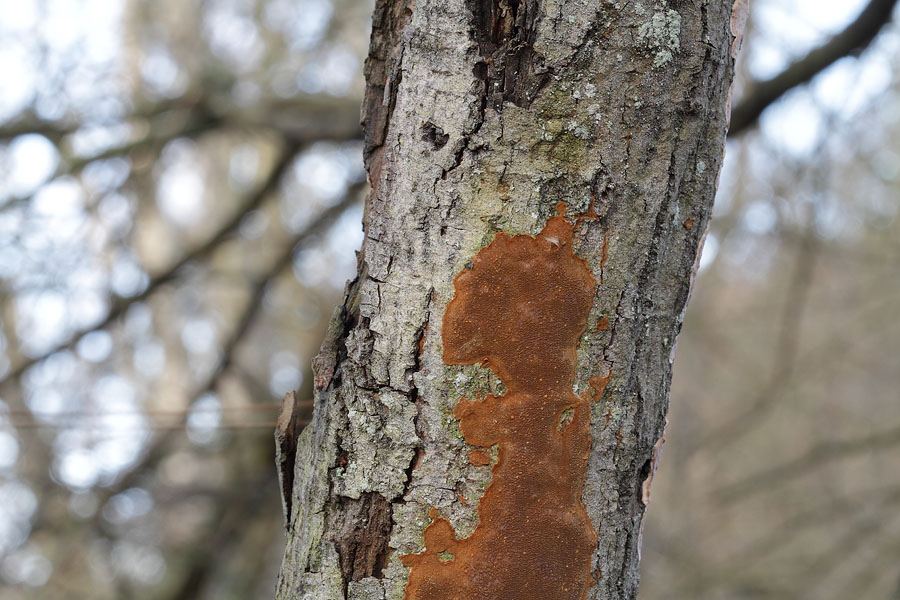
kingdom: Fungi
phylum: Basidiomycota
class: Agaricomycetes
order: Hymenochaetales
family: Hymenochaetaceae
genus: Fuscoporia
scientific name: Fuscoporia ferrea
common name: skorpe-ildporesvamp
